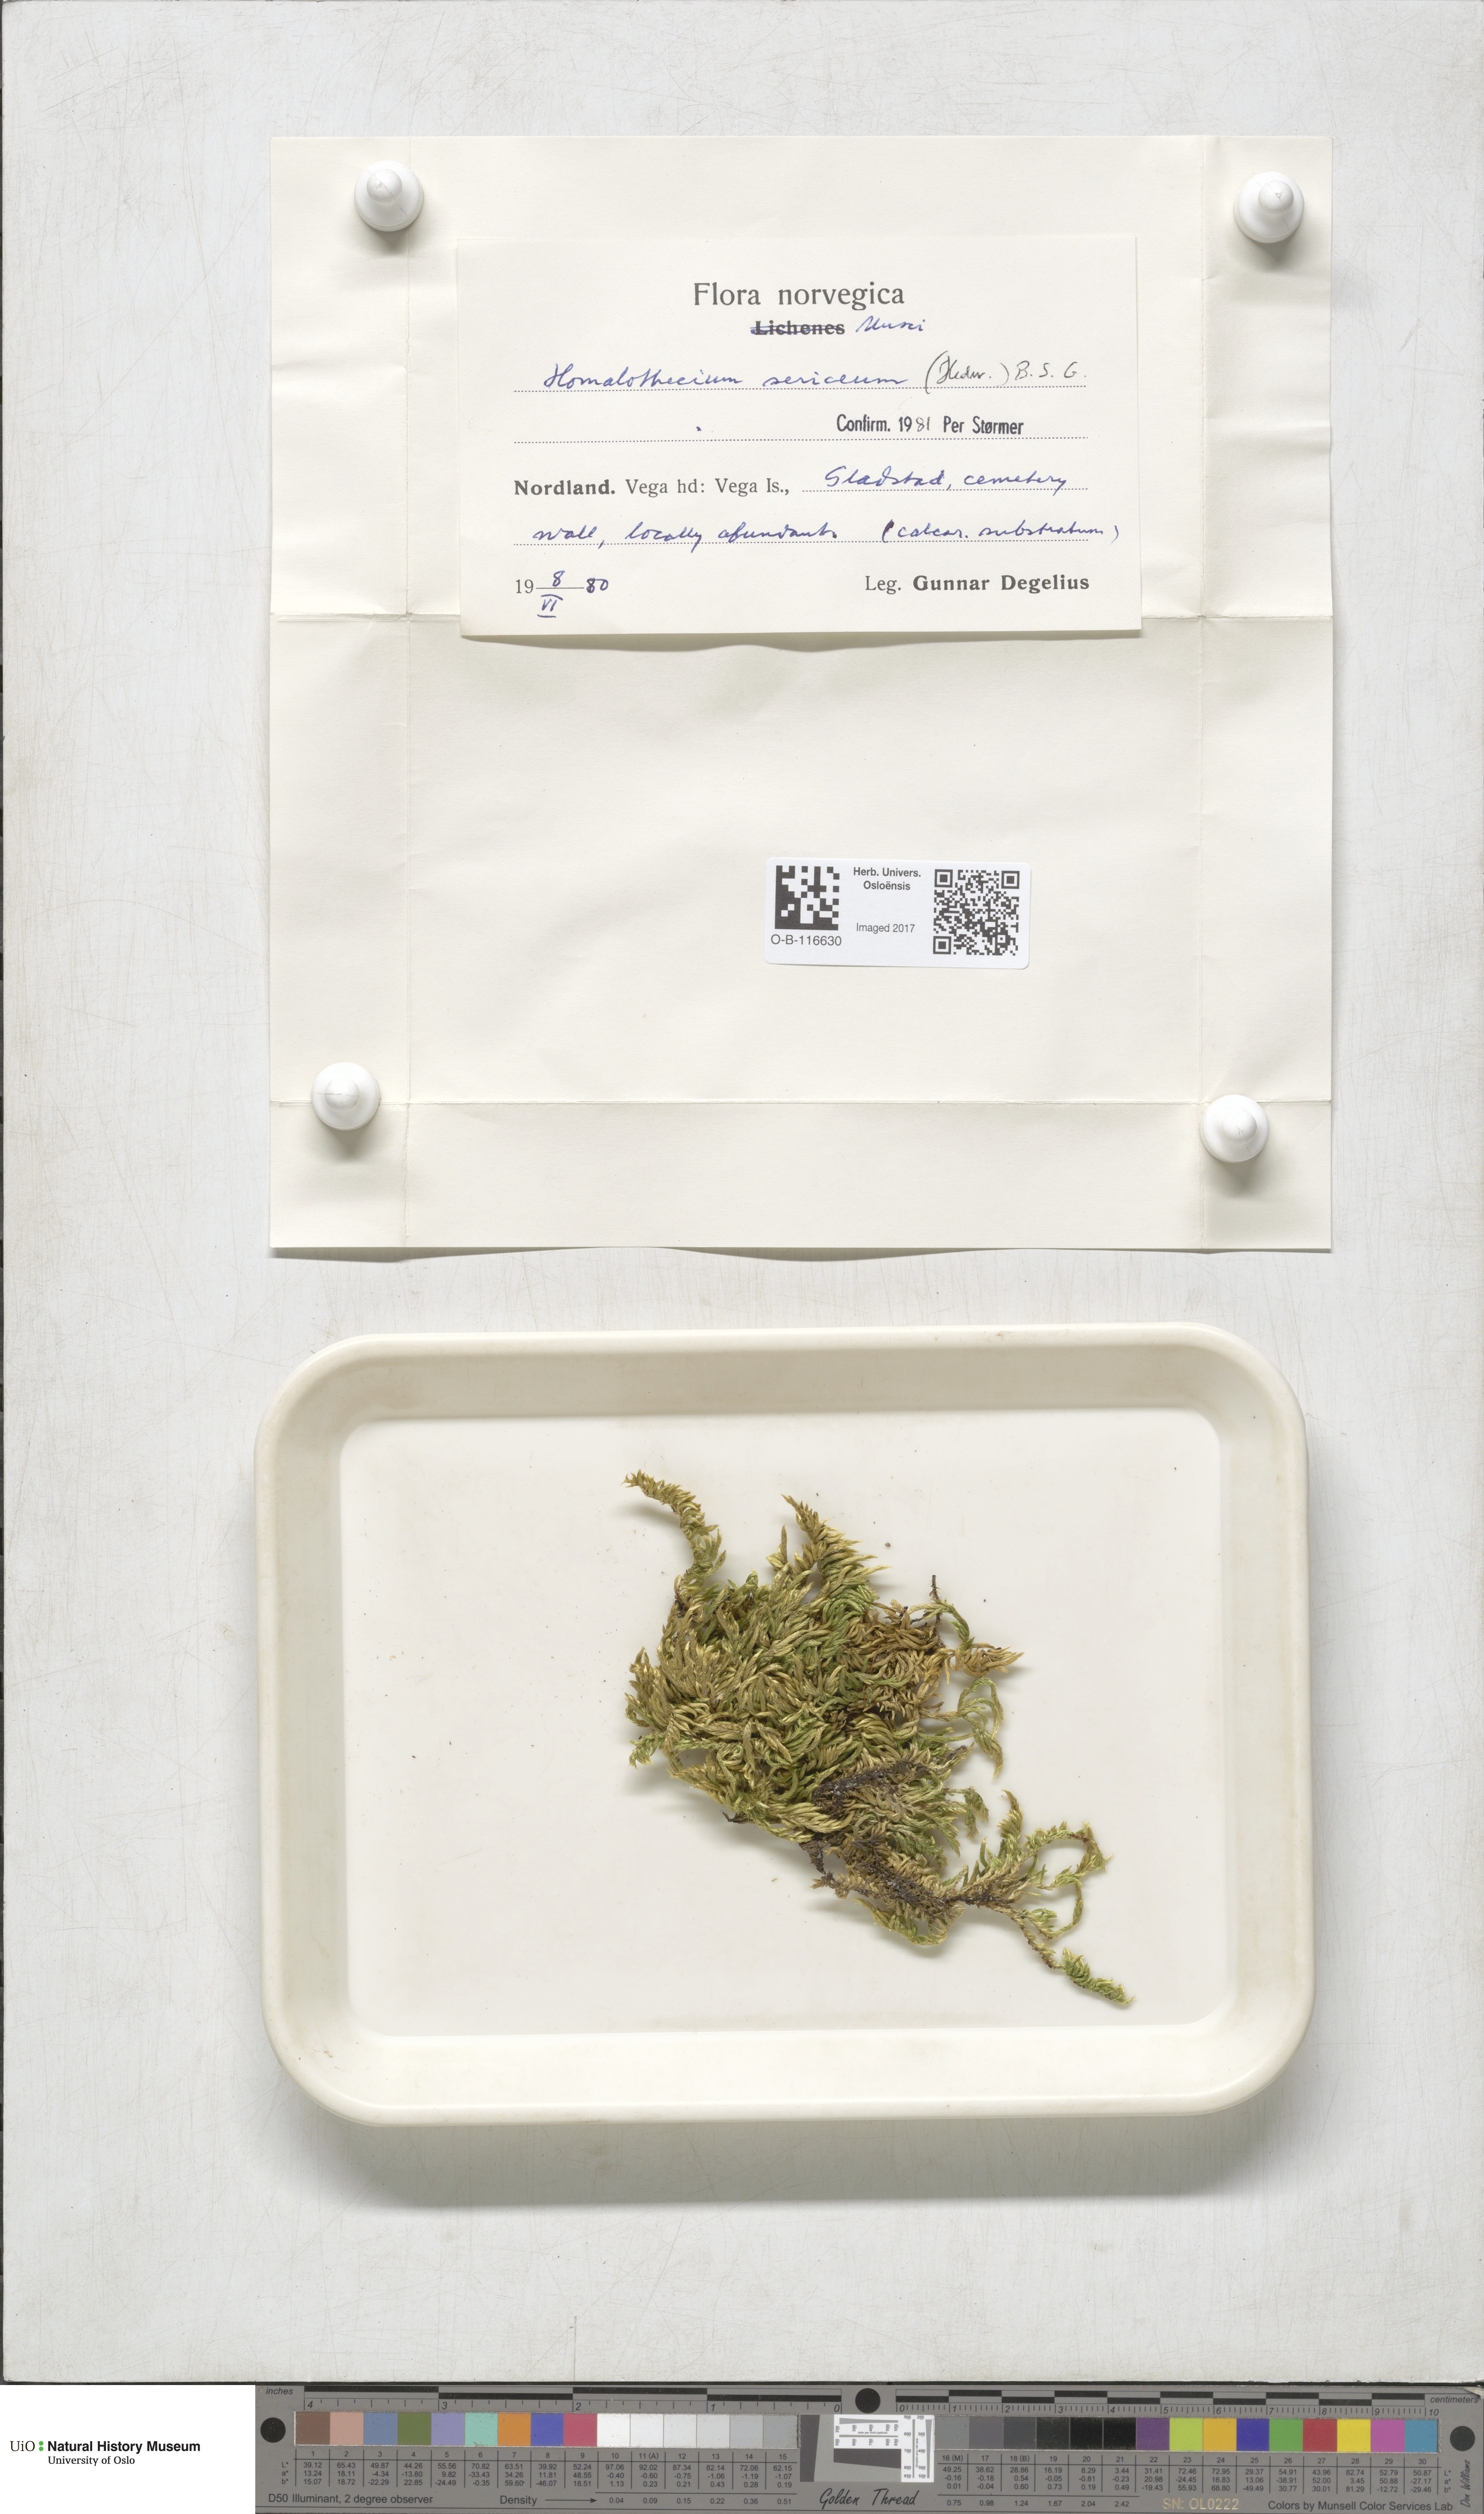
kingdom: Plantae
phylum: Bryophyta
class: Bryopsida
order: Hypnales
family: Brachytheciaceae
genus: Homalothecium
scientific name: Homalothecium sericeum
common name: Silky wall feather-moss
